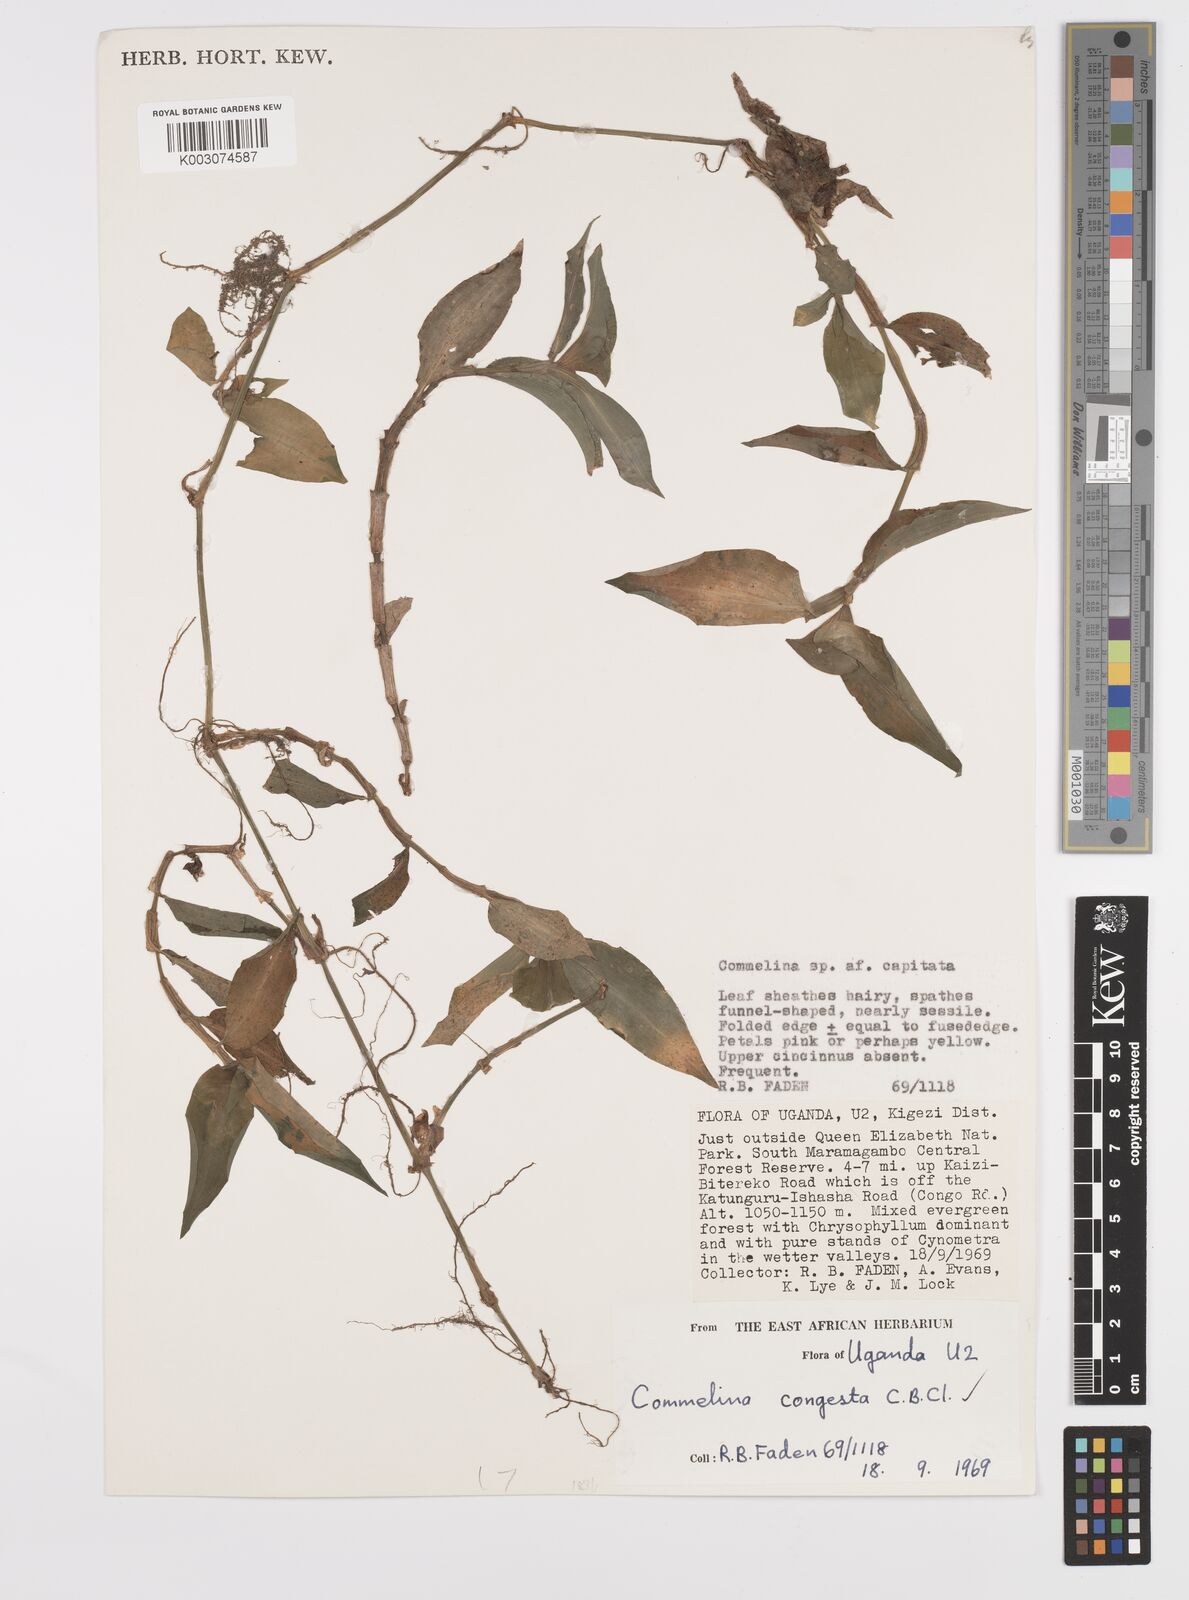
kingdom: Plantae
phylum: Tracheophyta
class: Liliopsida
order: Commelinales
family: Commelinaceae
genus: Commelina
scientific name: Commelina congesta
